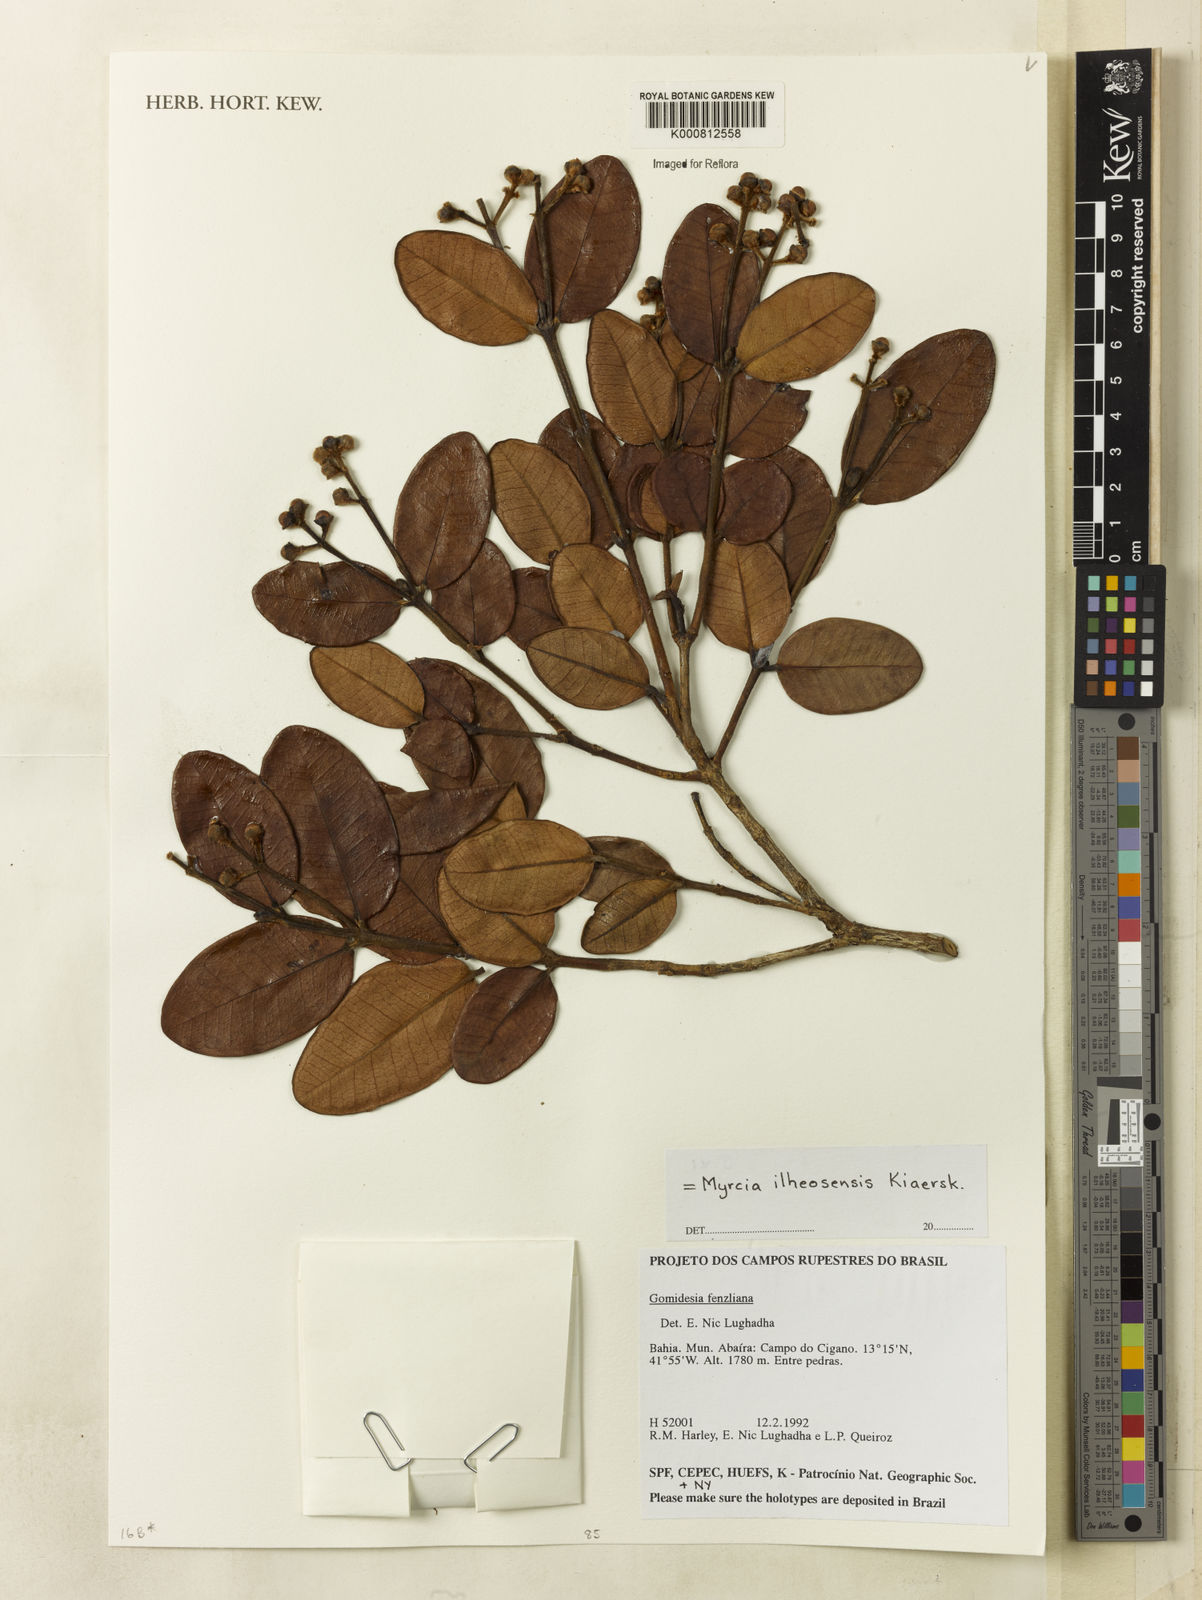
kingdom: Plantae
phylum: Tracheophyta
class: Magnoliopsida
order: Myrtales
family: Myrtaceae
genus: Myrcia
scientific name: Myrcia ilheosensis
